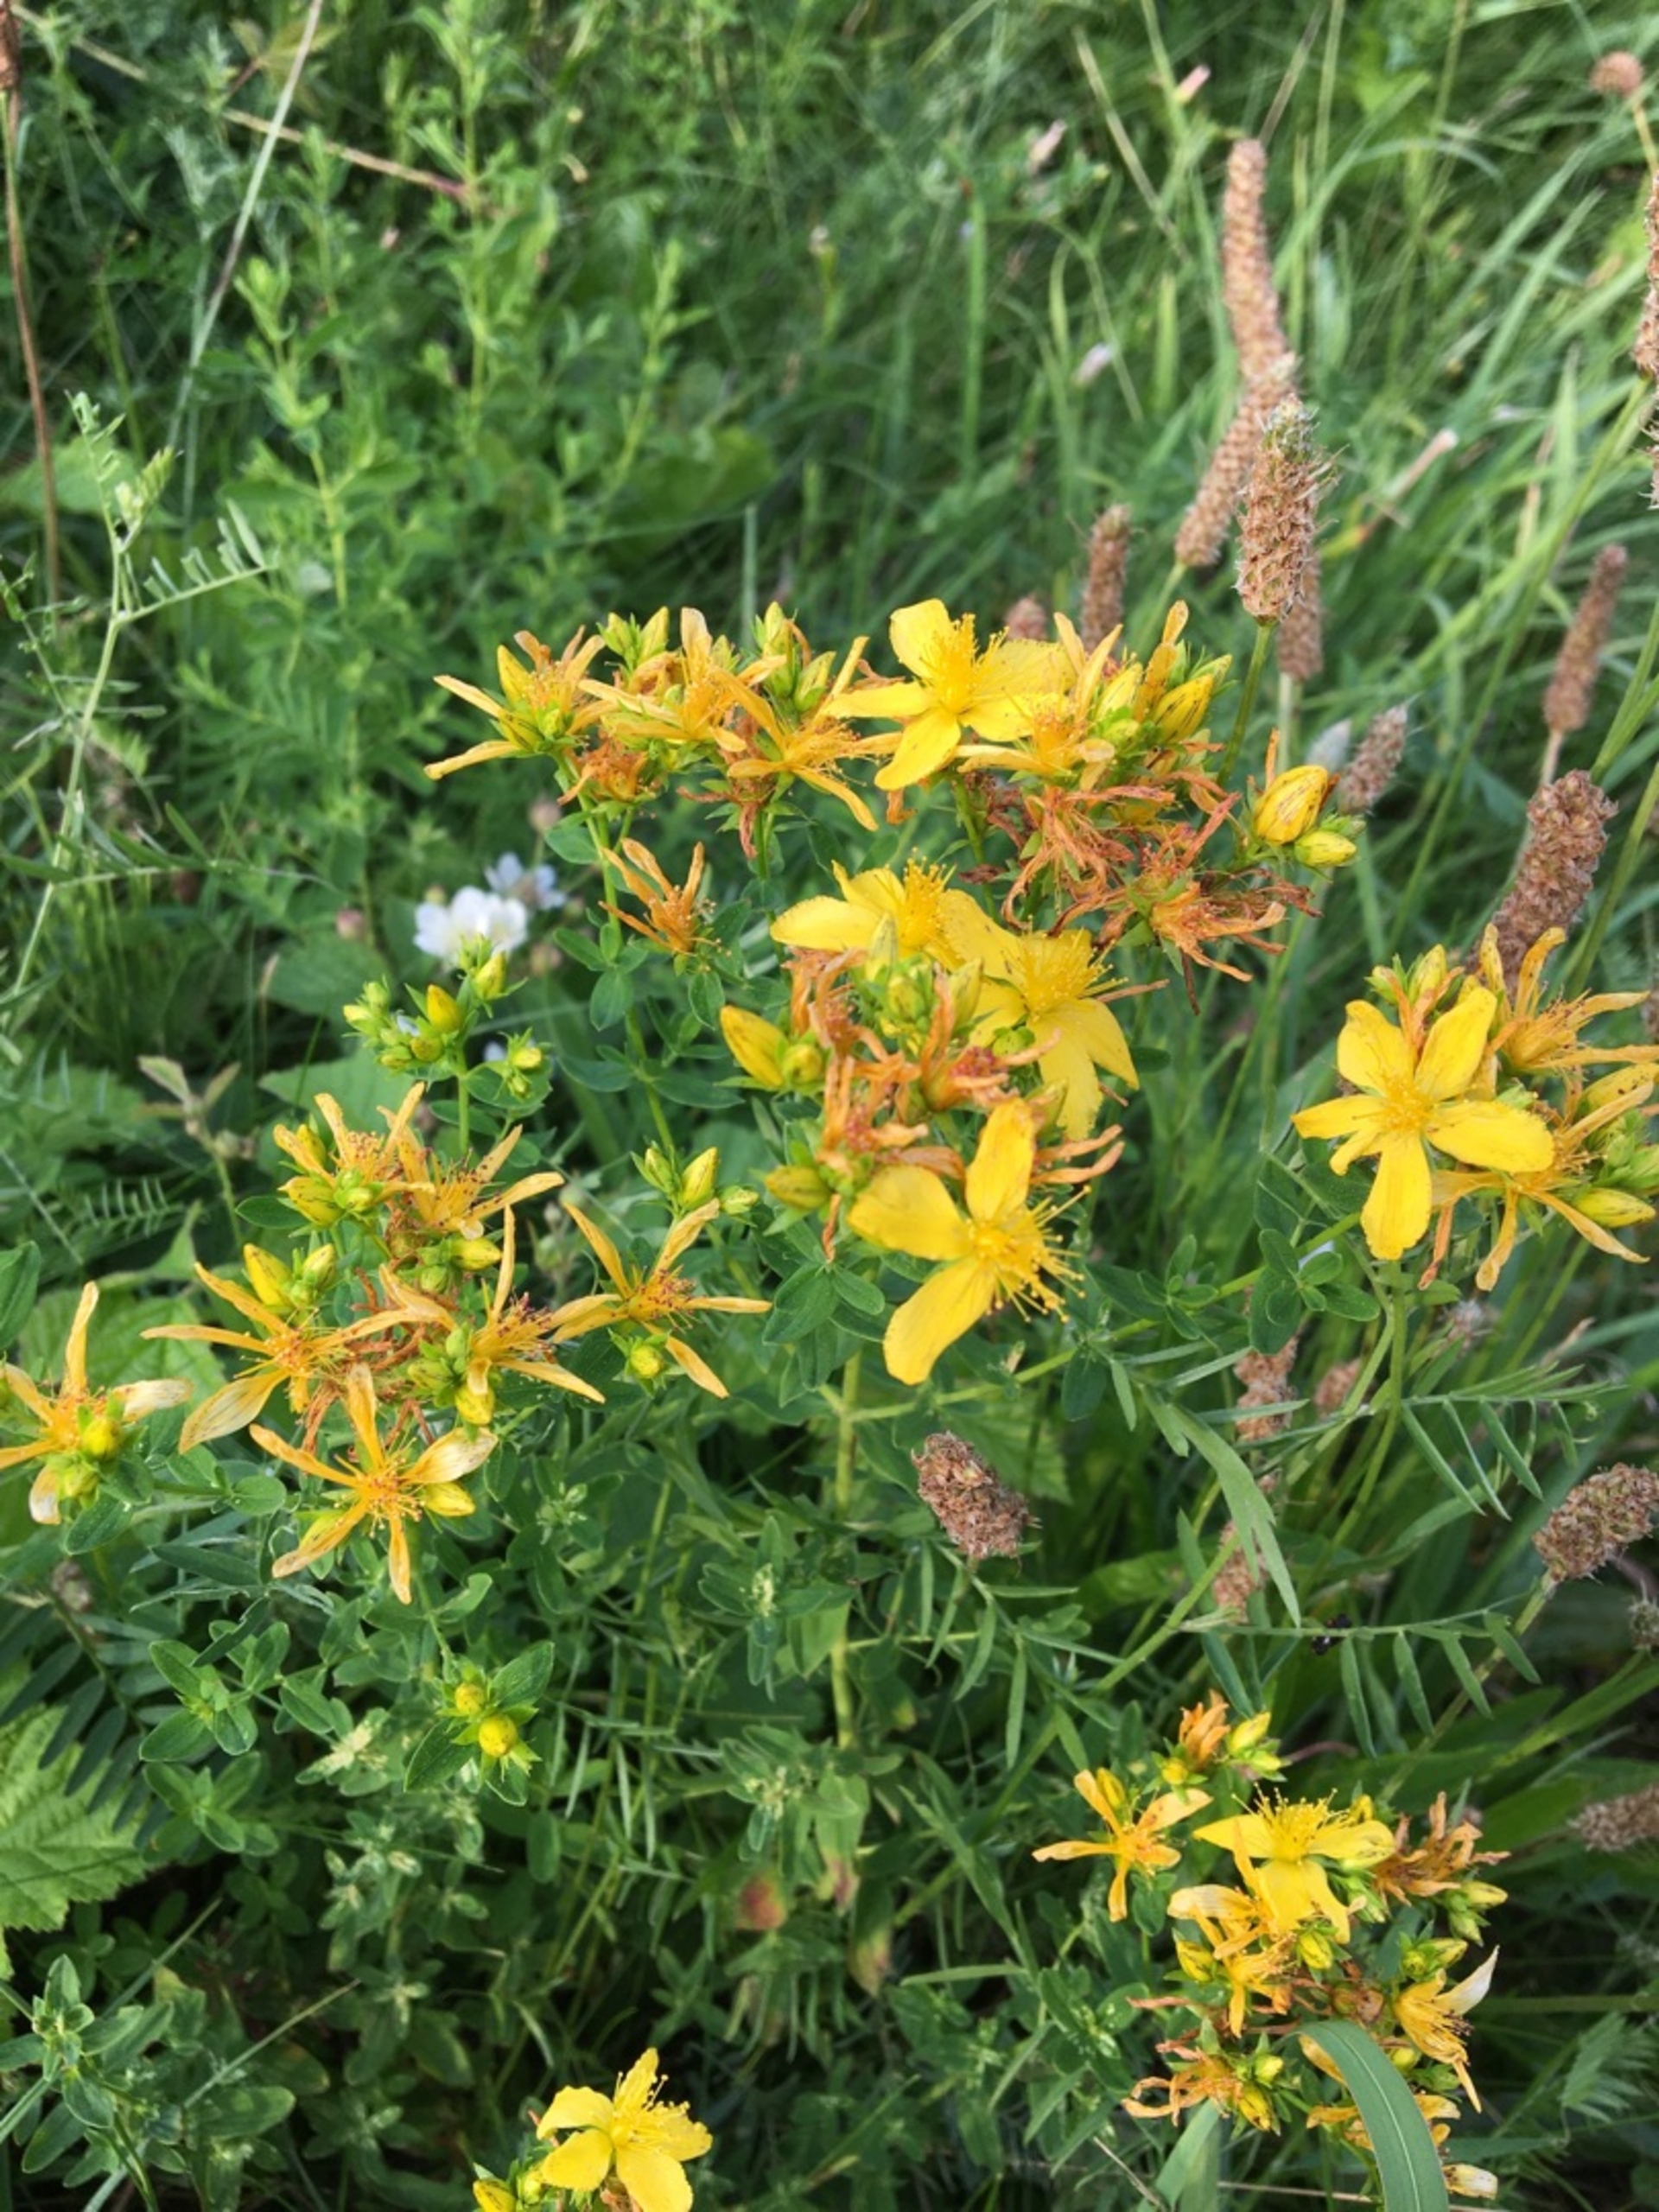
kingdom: Plantae
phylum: Tracheophyta
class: Magnoliopsida
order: Malpighiales
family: Hypericaceae
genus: Hypericum
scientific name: Hypericum perforatum
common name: Prikbladet perikon
